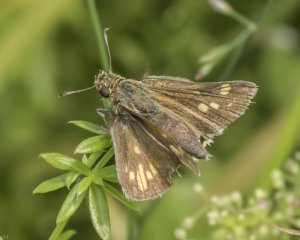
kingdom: Animalia
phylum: Arthropoda
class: Insecta
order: Lepidoptera
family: Hesperiidae
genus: Polites
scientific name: Polites coras
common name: Peck's Skipper
